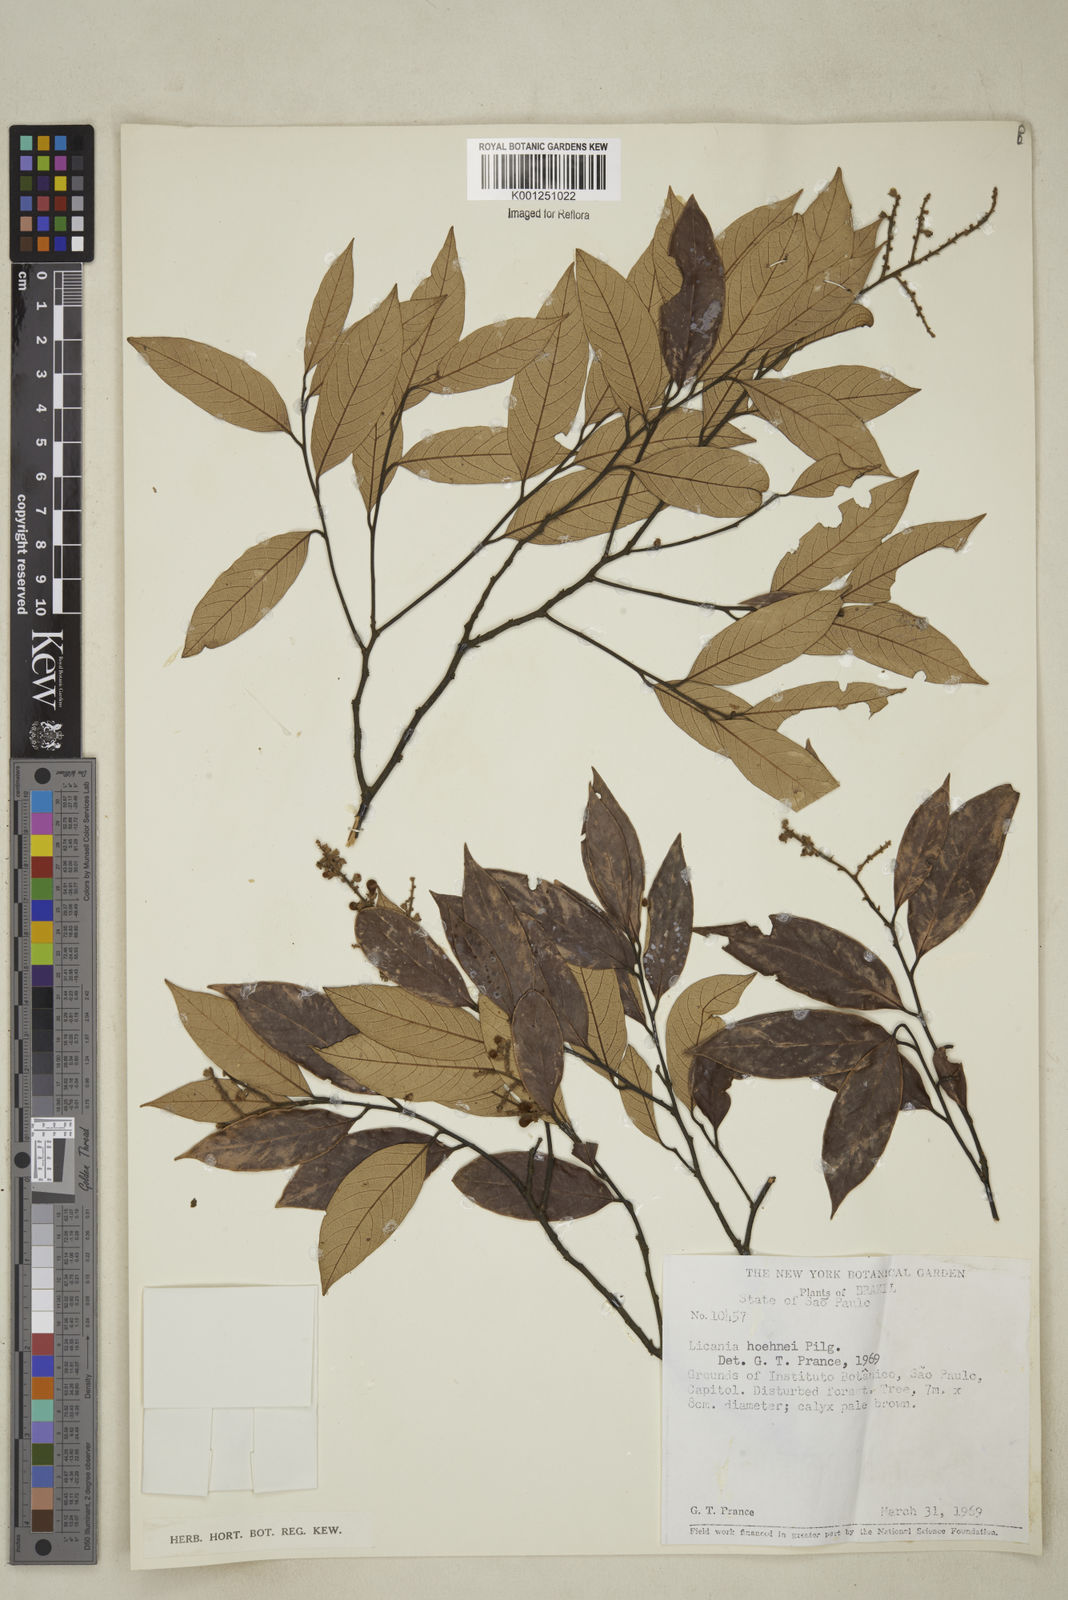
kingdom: Plantae
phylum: Tracheophyta
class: Magnoliopsida
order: Malpighiales
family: Chrysobalanaceae
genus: Licania
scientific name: Licania indurata
